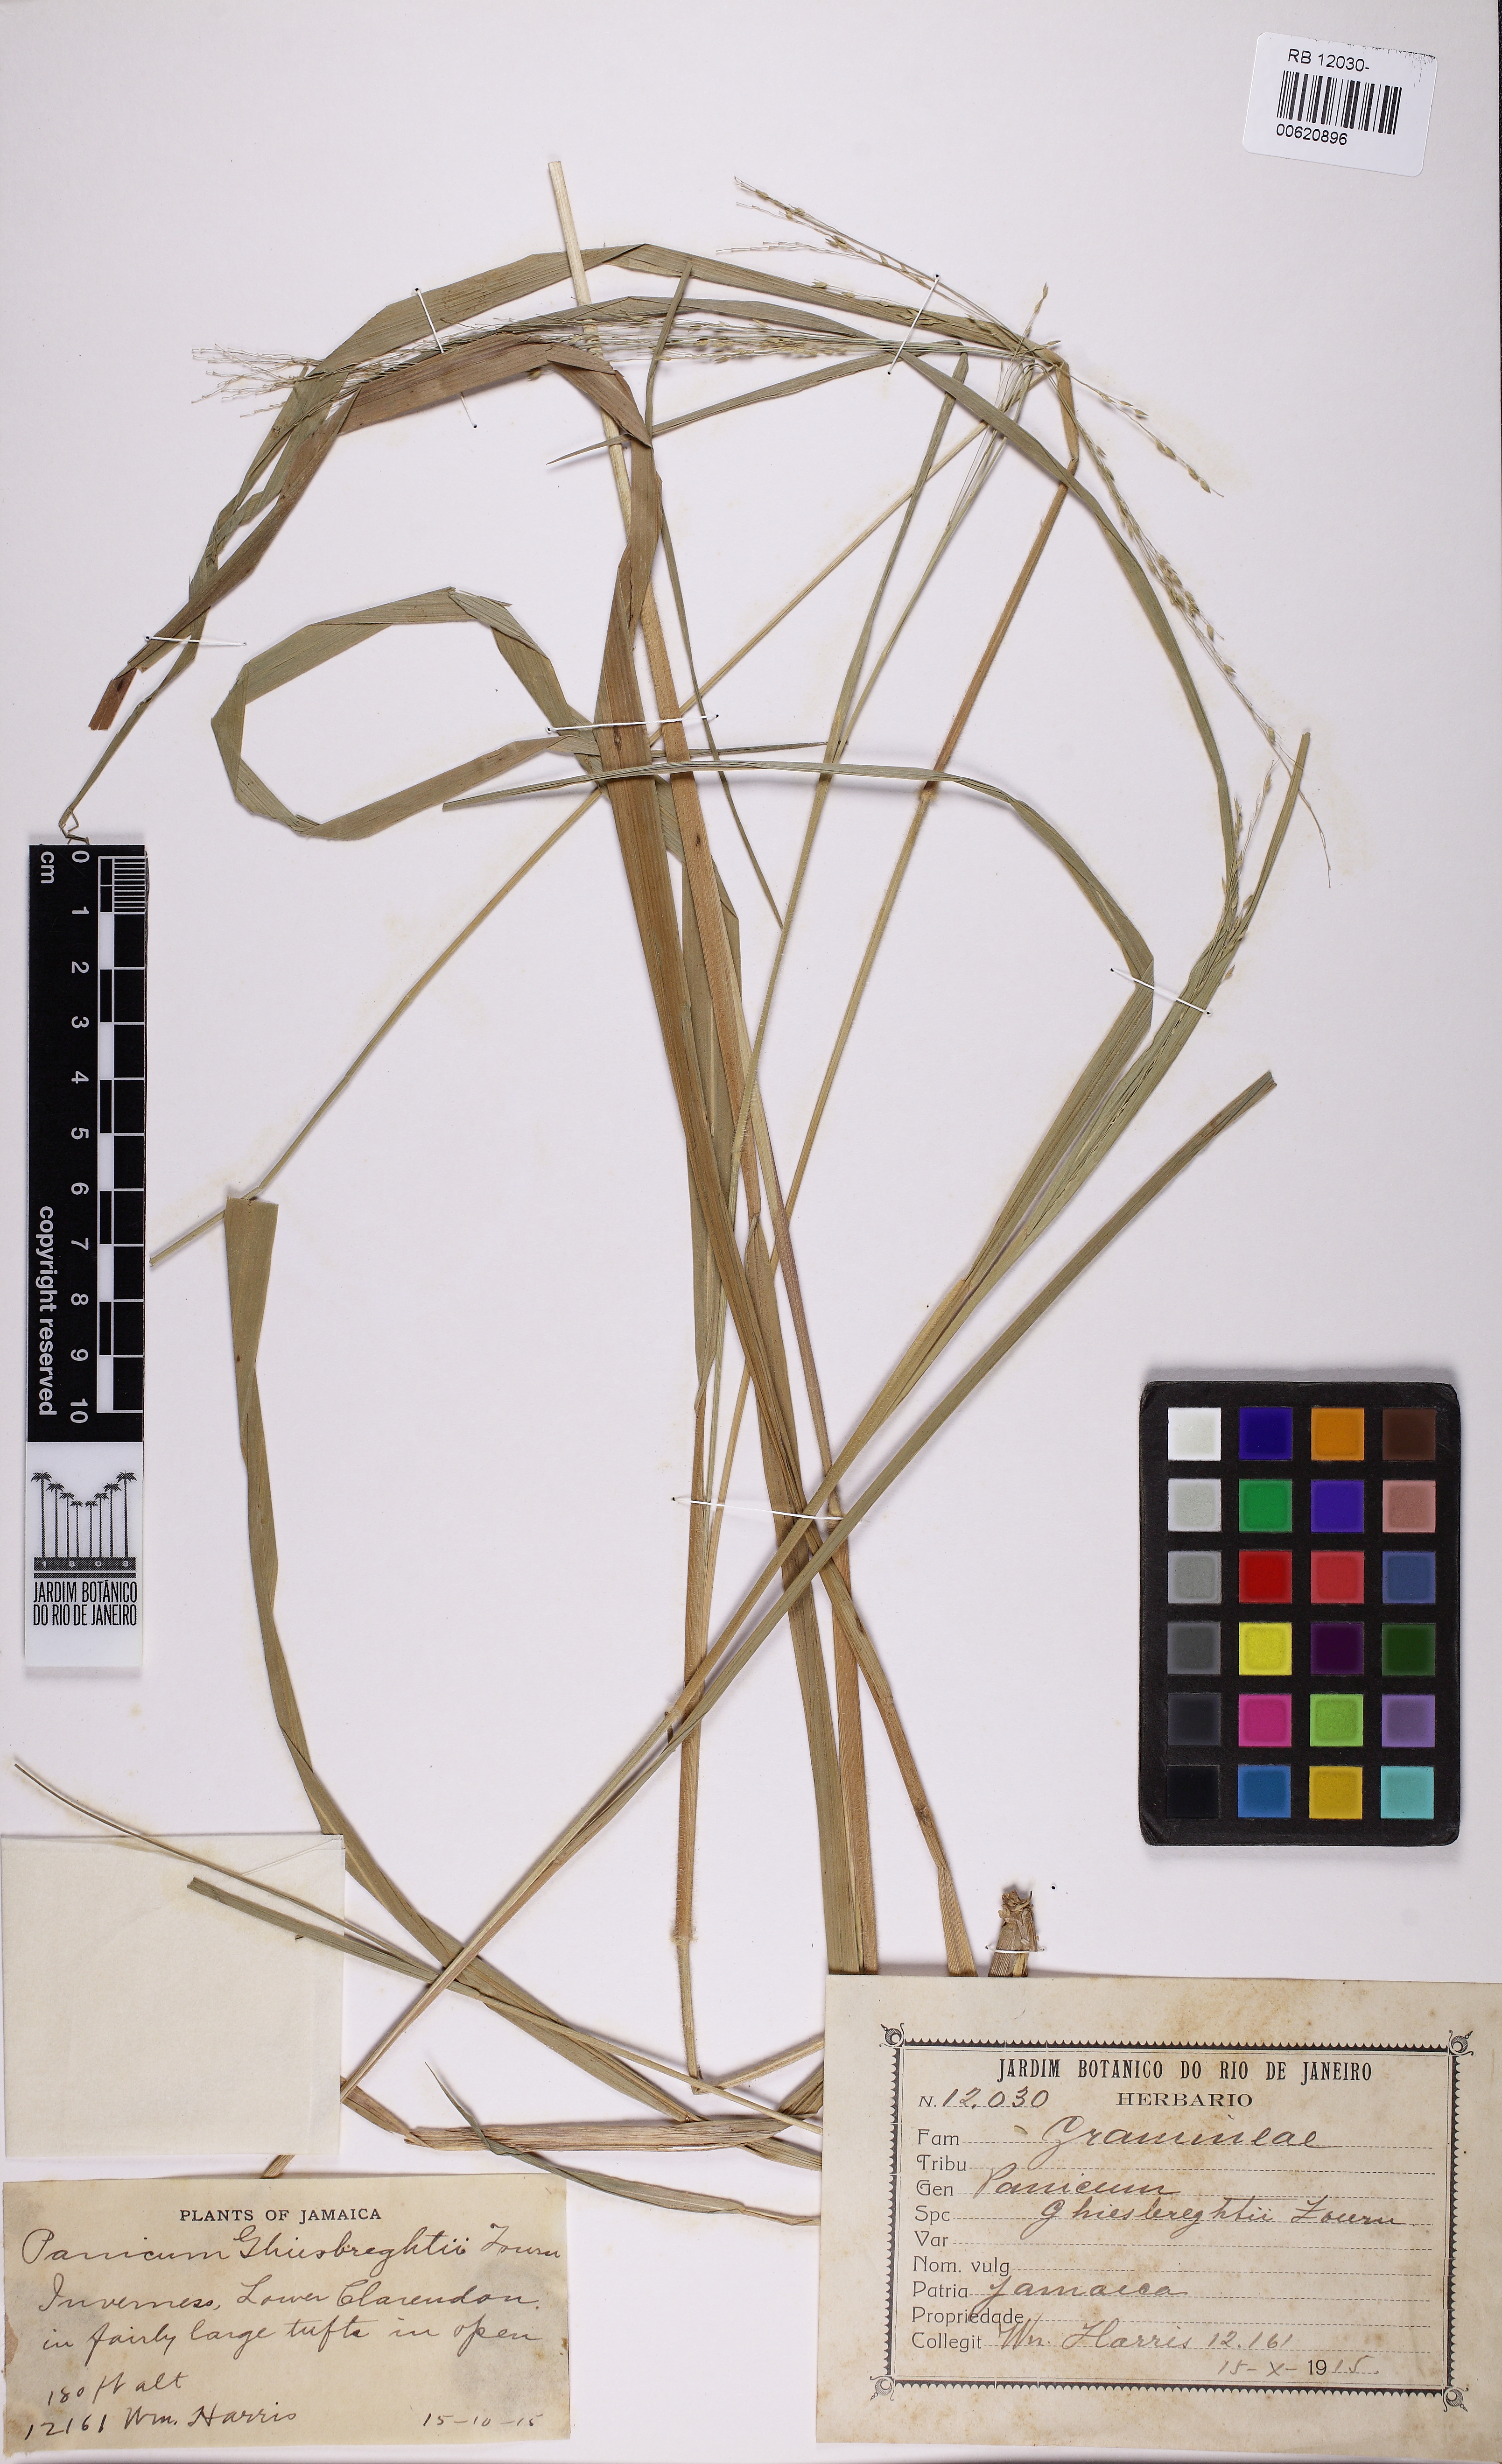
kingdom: Plantae
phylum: Tracheophyta
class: Liliopsida
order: Poales
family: Poaceae
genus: Panicum
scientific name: Panicum ghiesbreghtii
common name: Ghiesbreght's witchgrass
